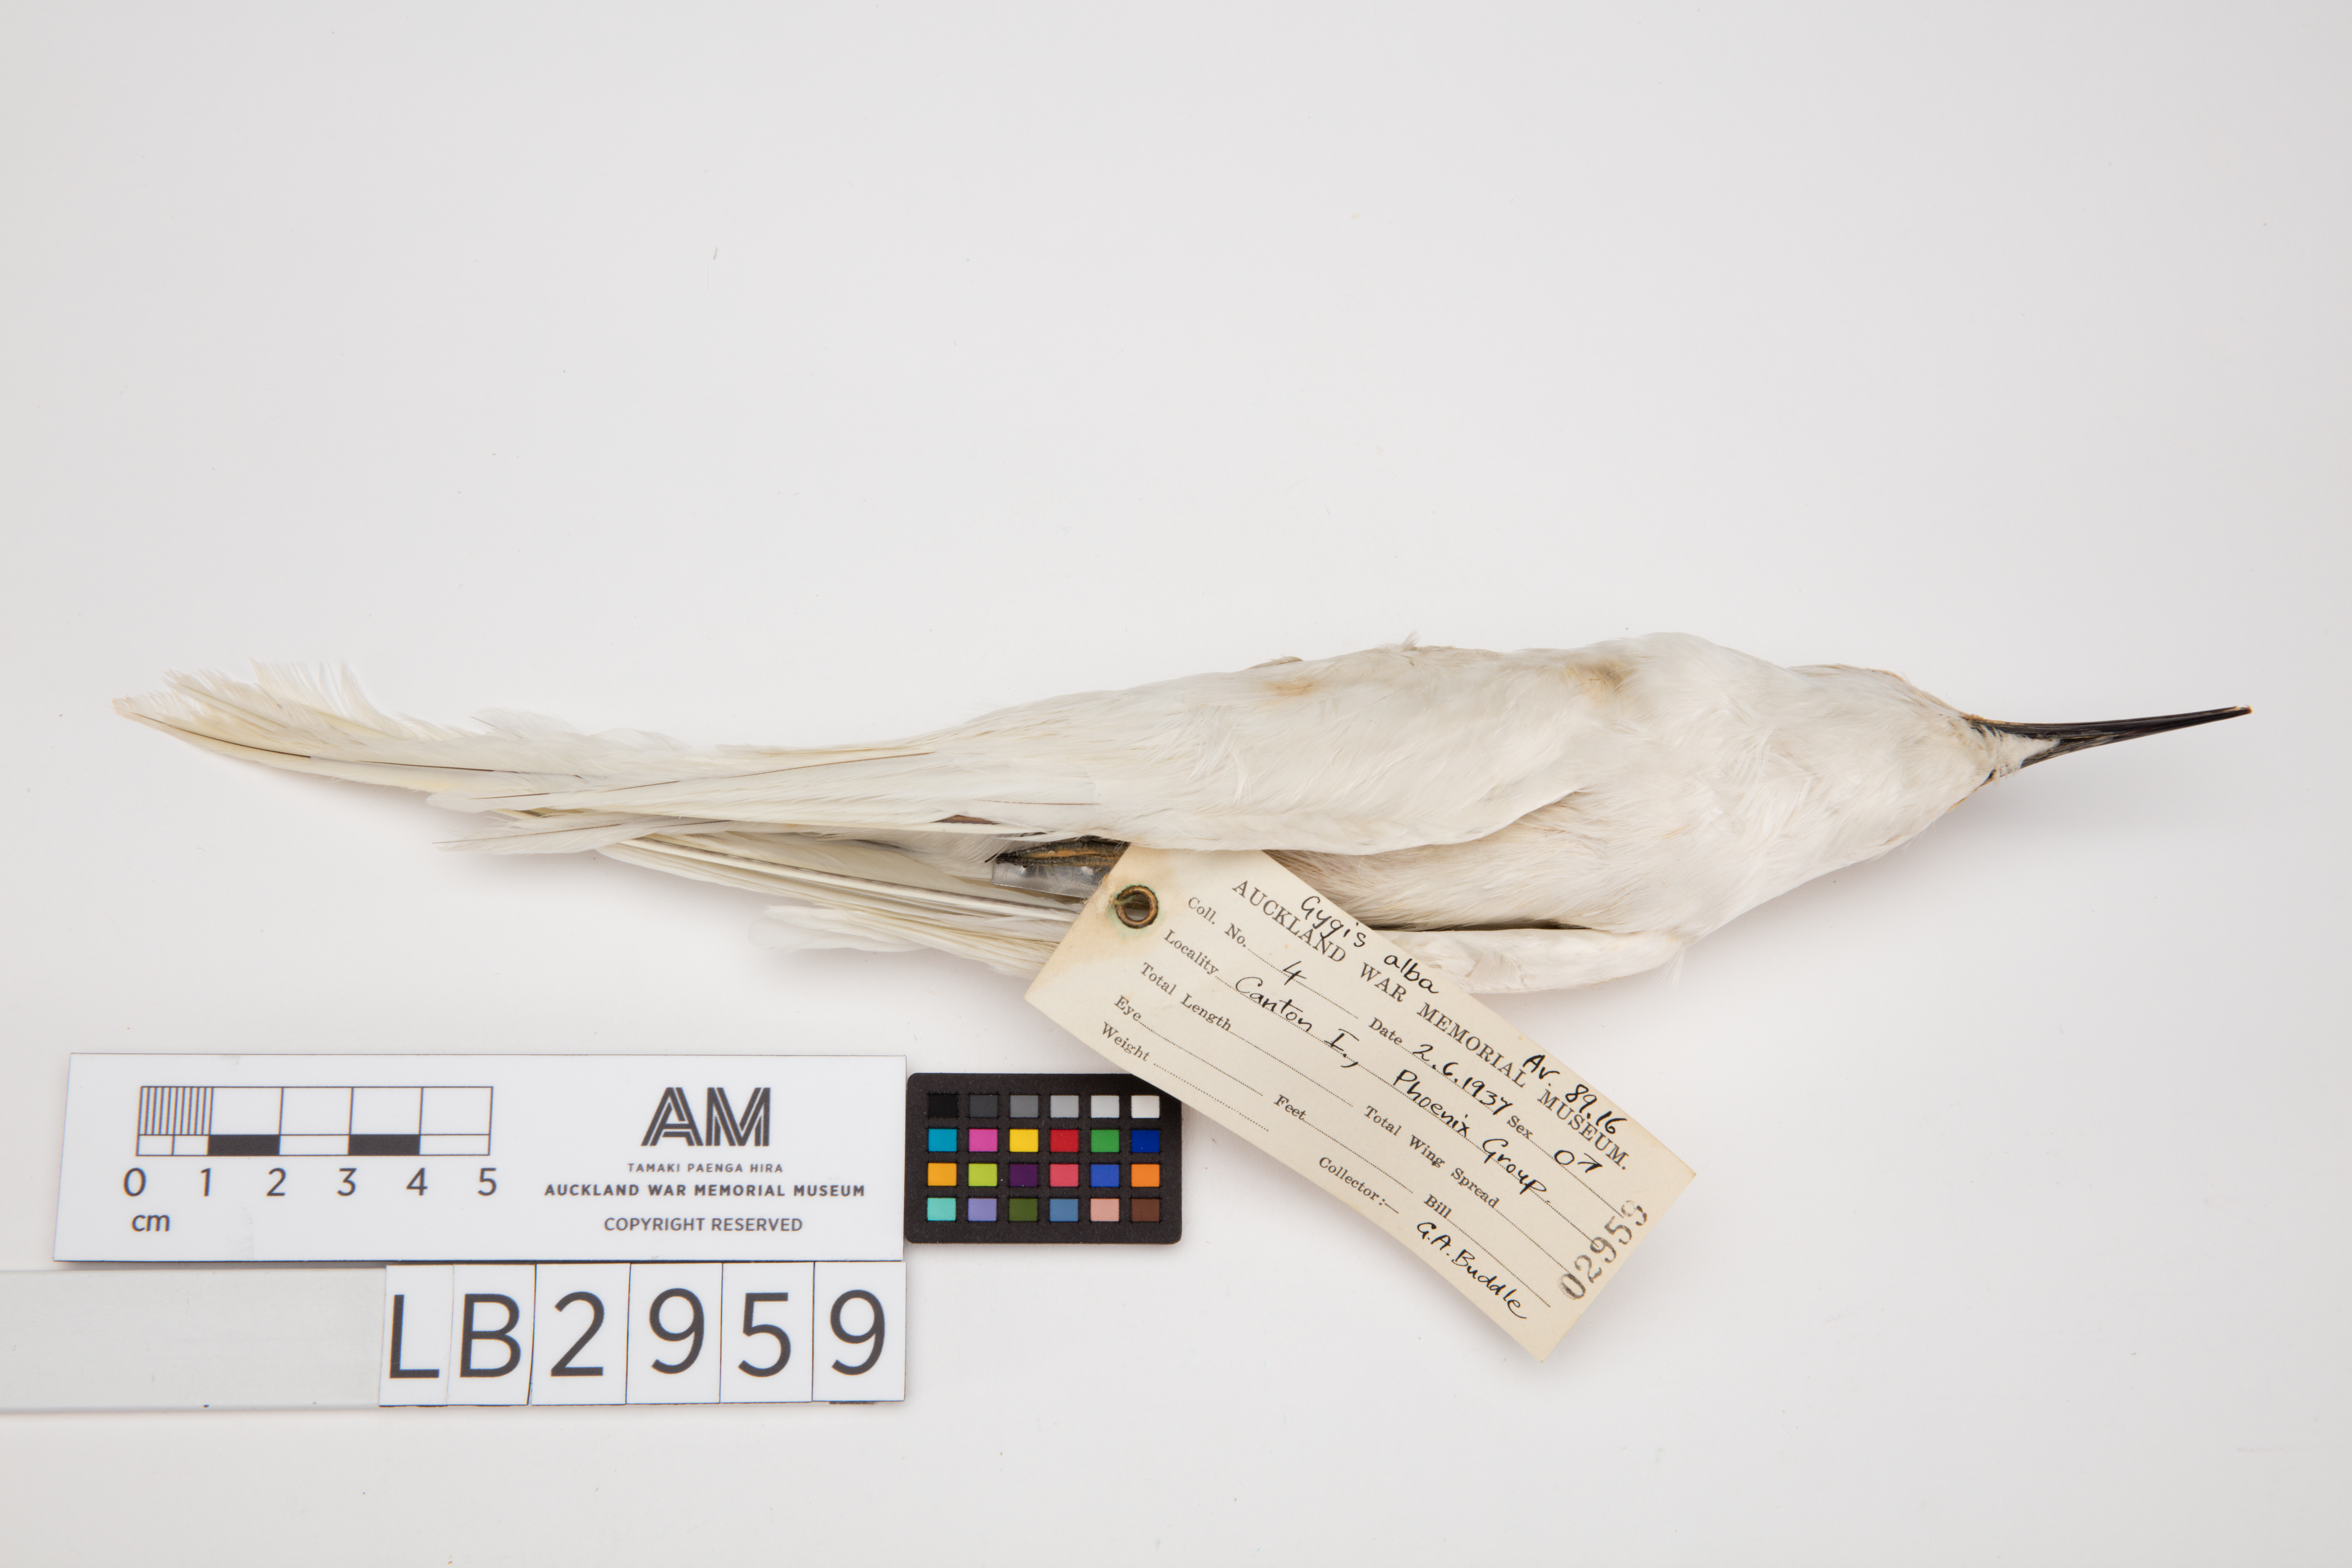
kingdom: Animalia
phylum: Chordata
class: Aves
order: Charadriiformes
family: Laridae
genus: Gygis
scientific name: Gygis alba
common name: White tern
